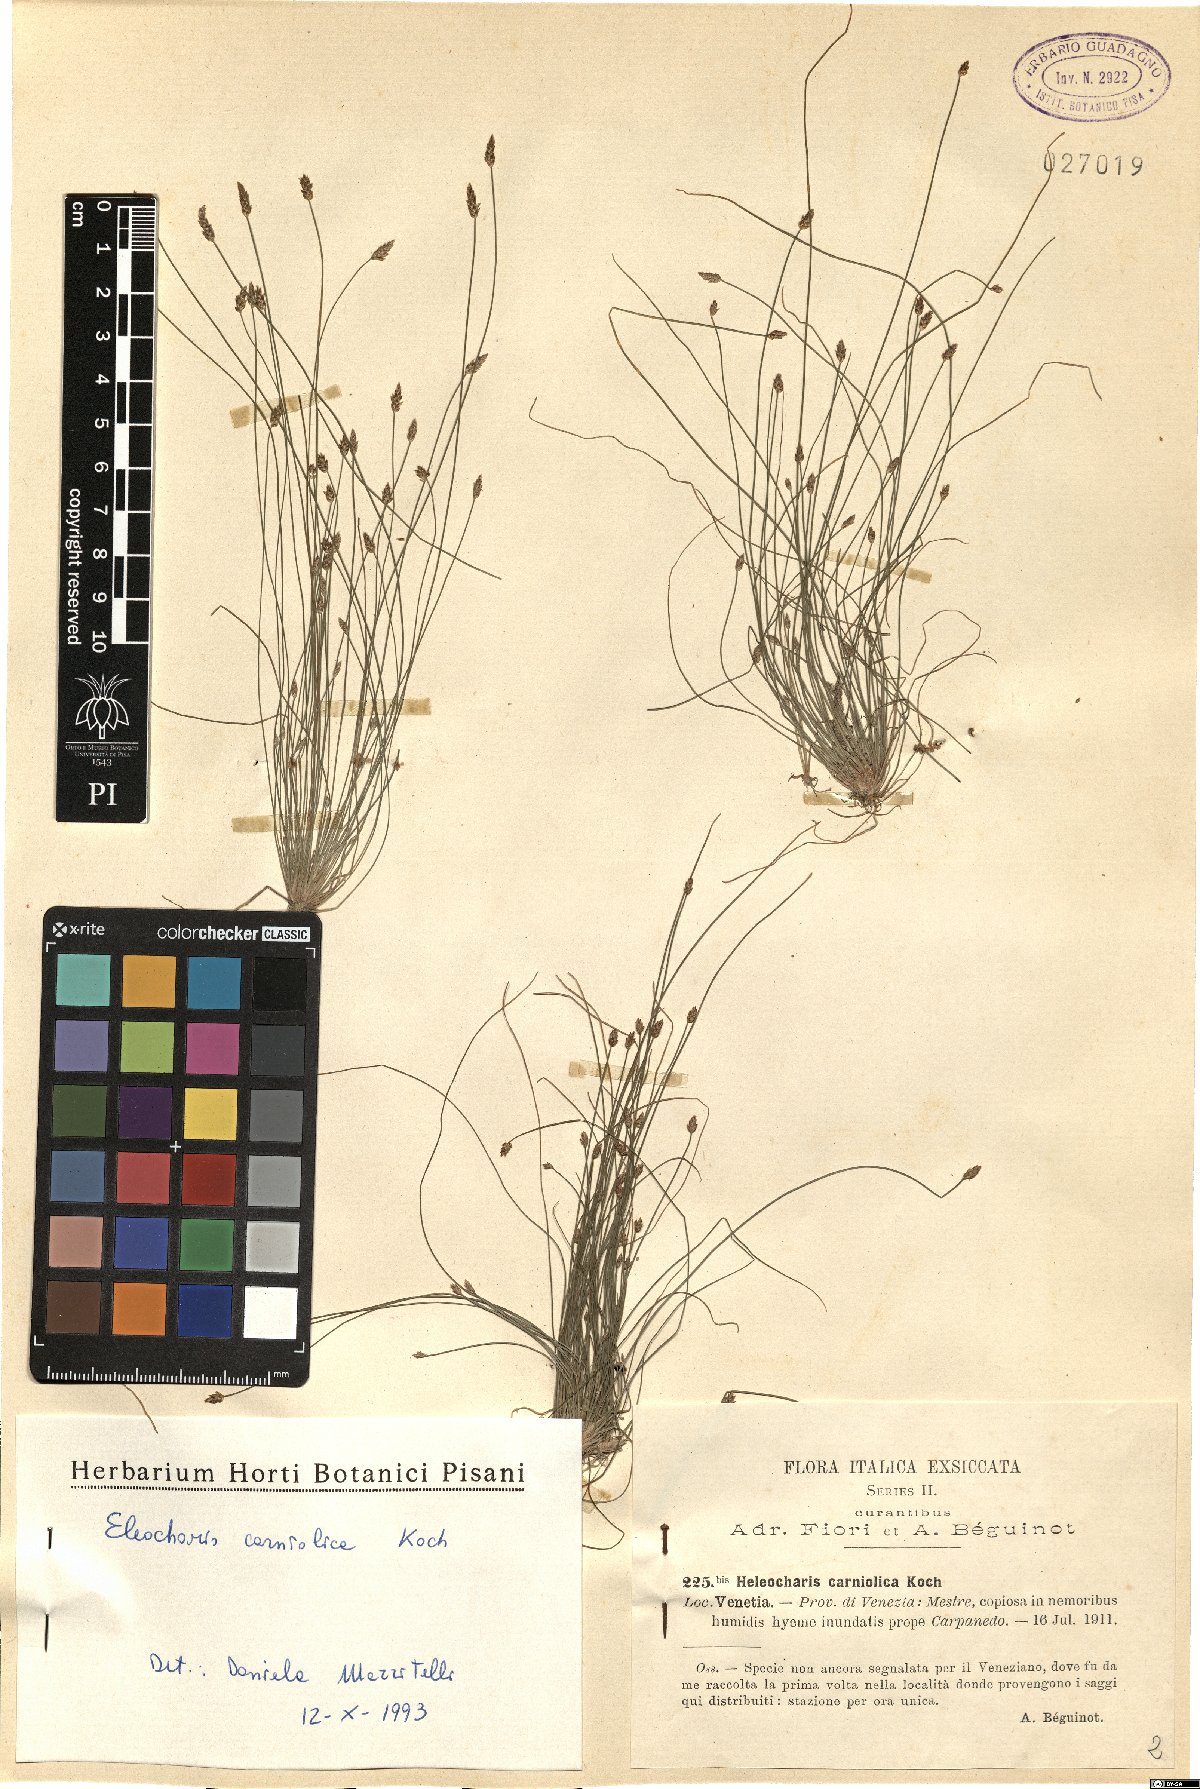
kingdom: Plantae
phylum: Tracheophyta
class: Liliopsida
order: Poales
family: Cyperaceae
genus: Eleocharis
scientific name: Eleocharis carniolica
